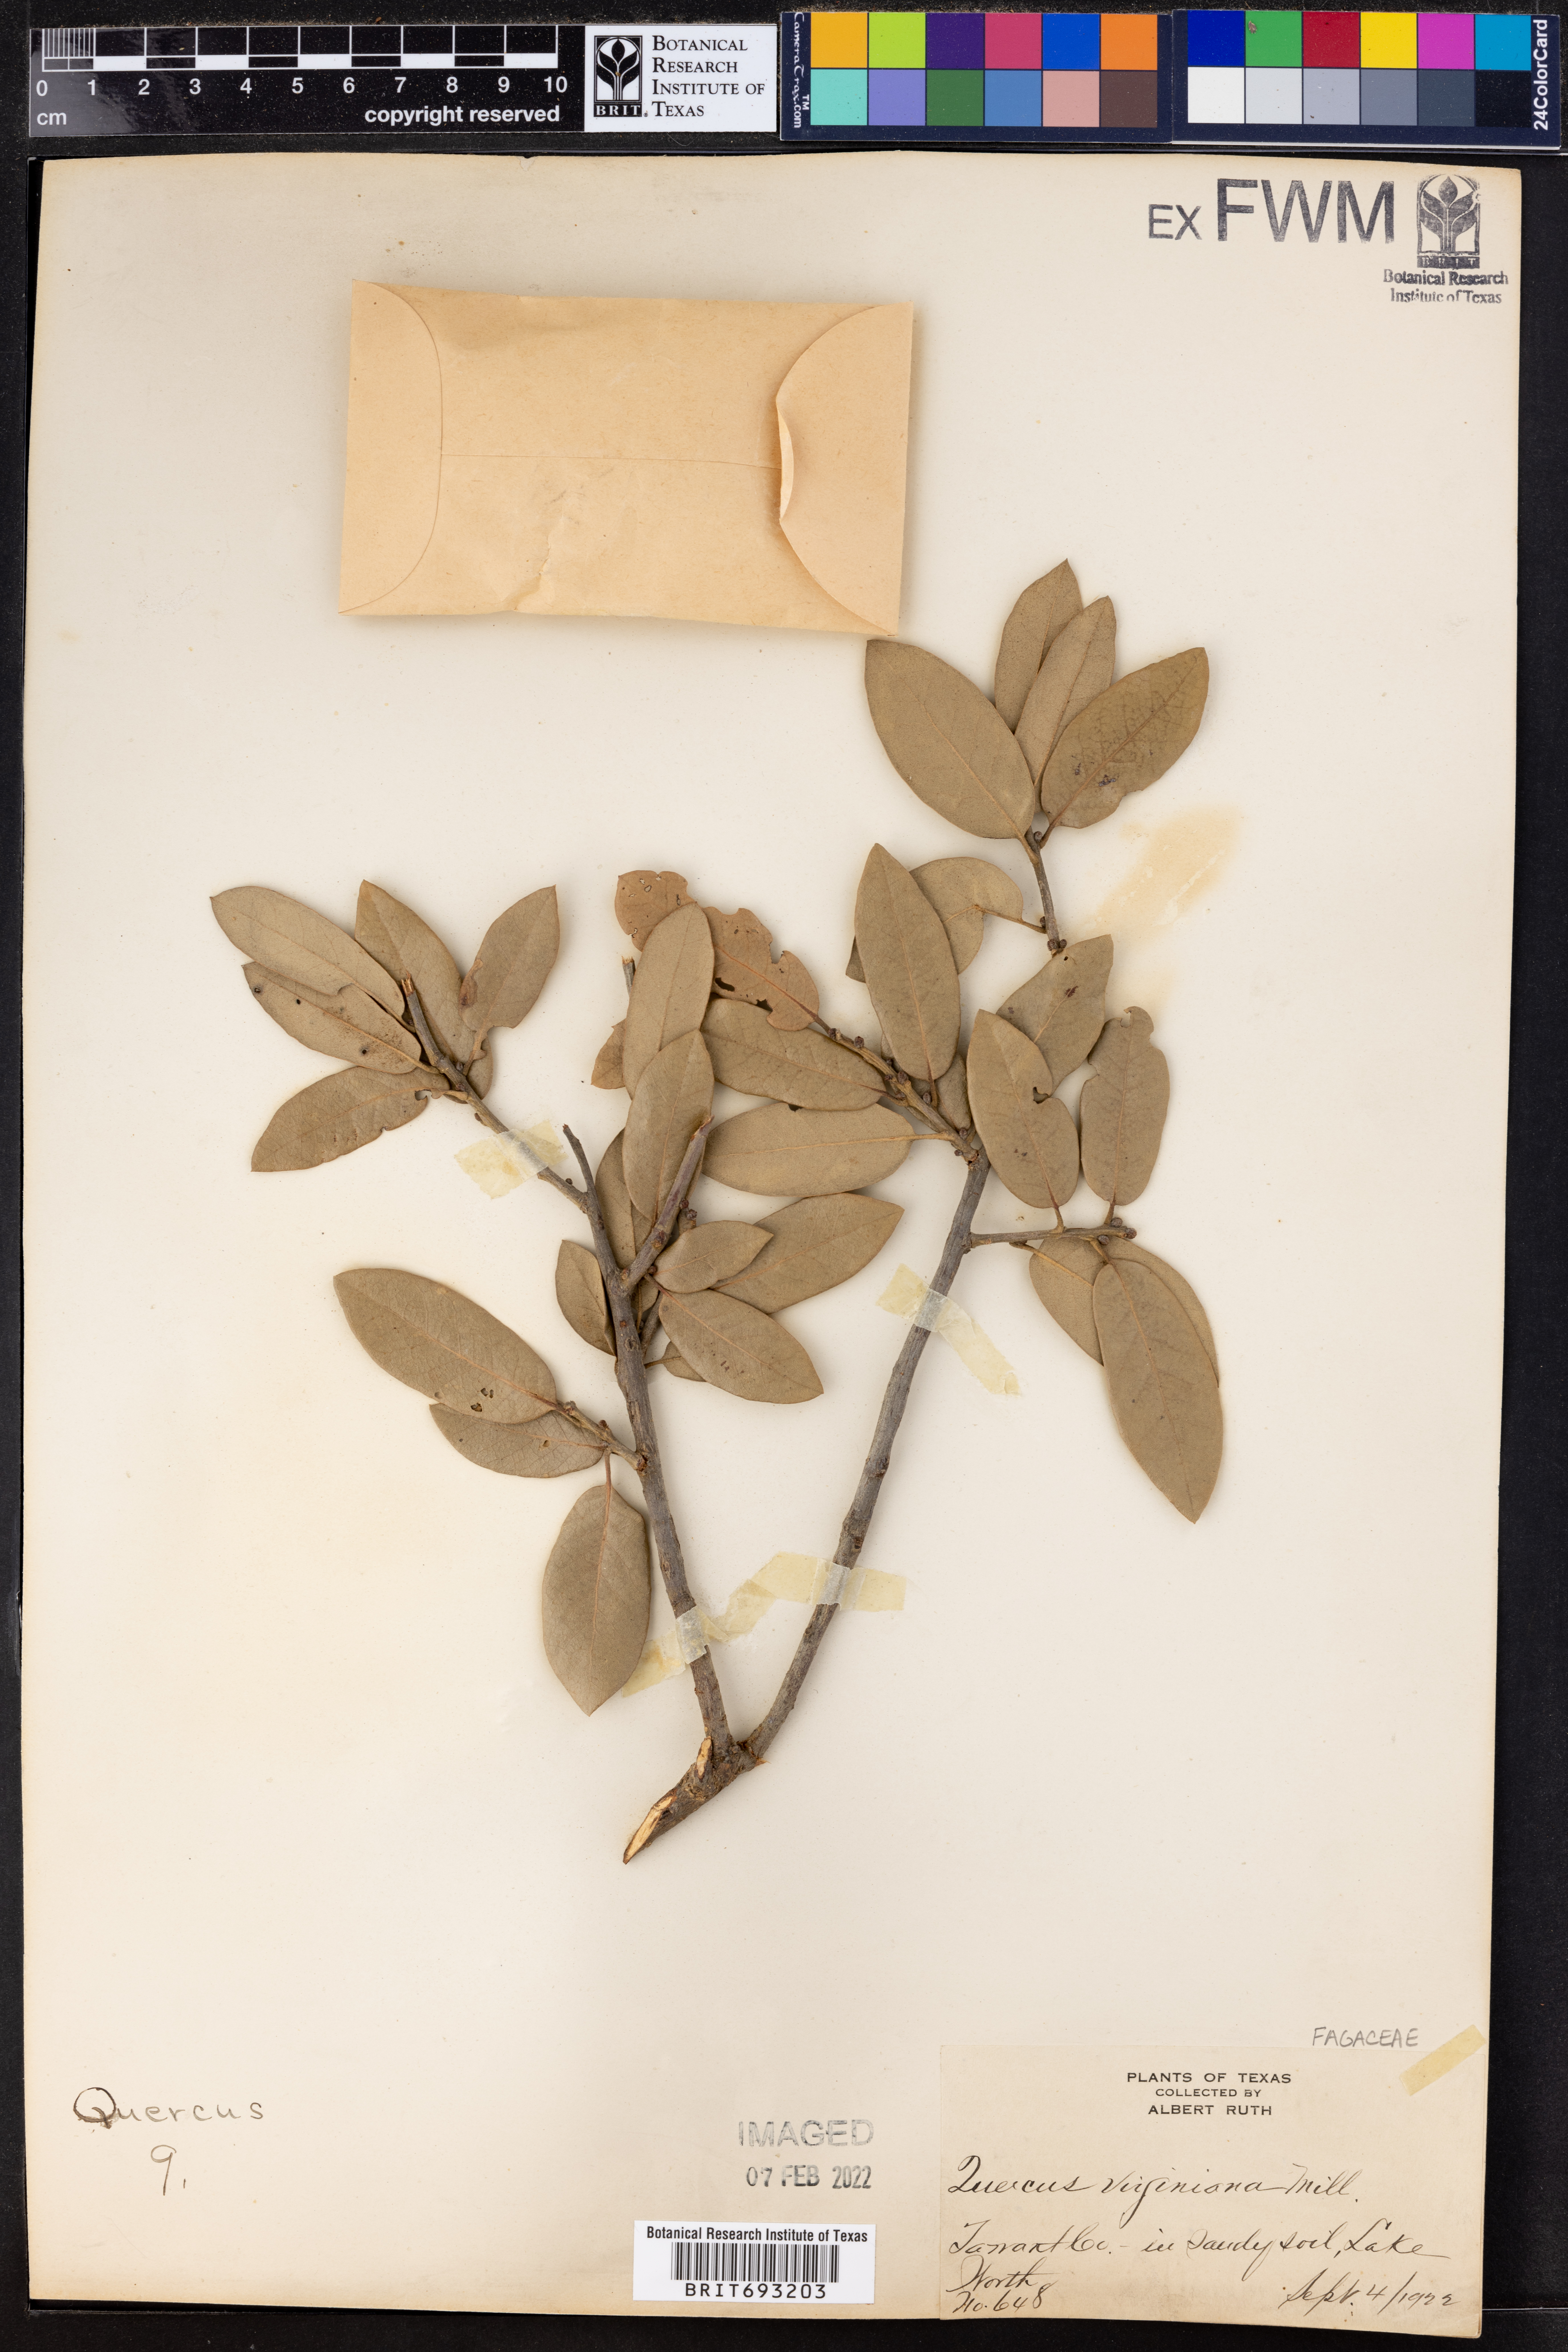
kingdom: Plantae
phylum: Tracheophyta
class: Magnoliopsida
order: Fagales
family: Fagaceae
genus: Quercus
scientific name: Quercus virginiana
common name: Southern live oak
